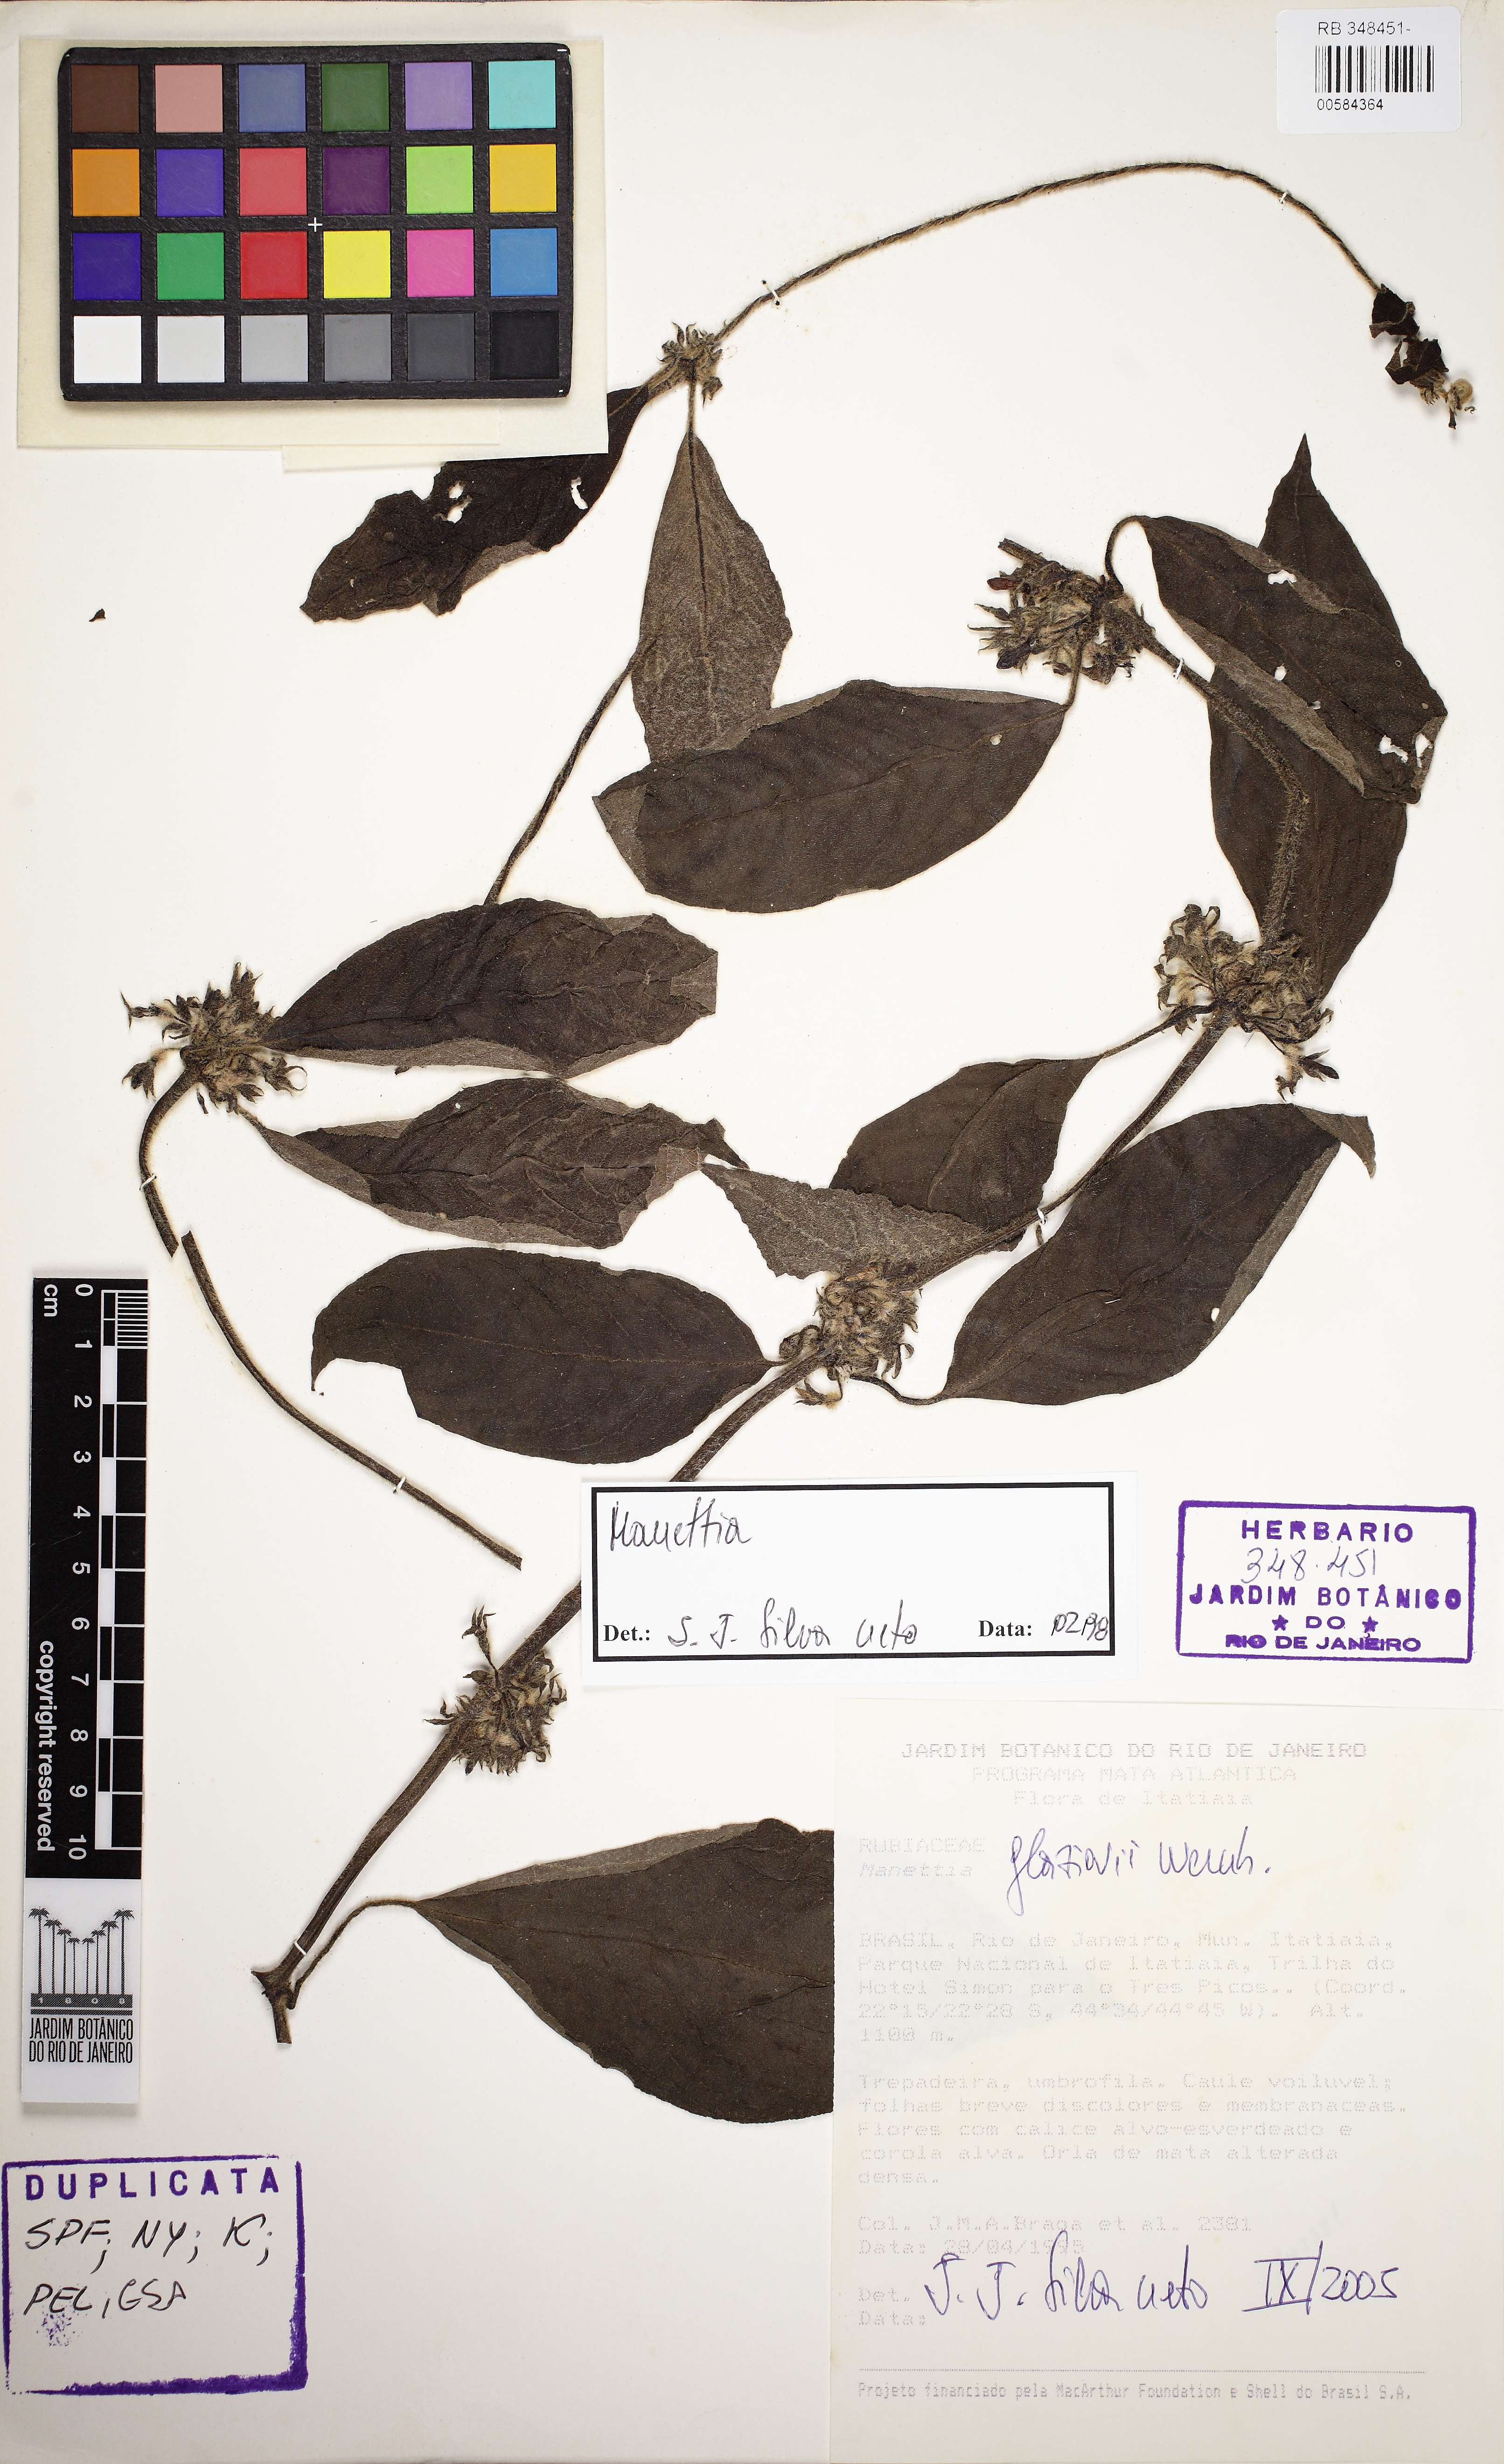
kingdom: Plantae
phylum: Tracheophyta
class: Magnoliopsida
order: Gentianales
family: Rubiaceae
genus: Manettia
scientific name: Manettia glaziovii
